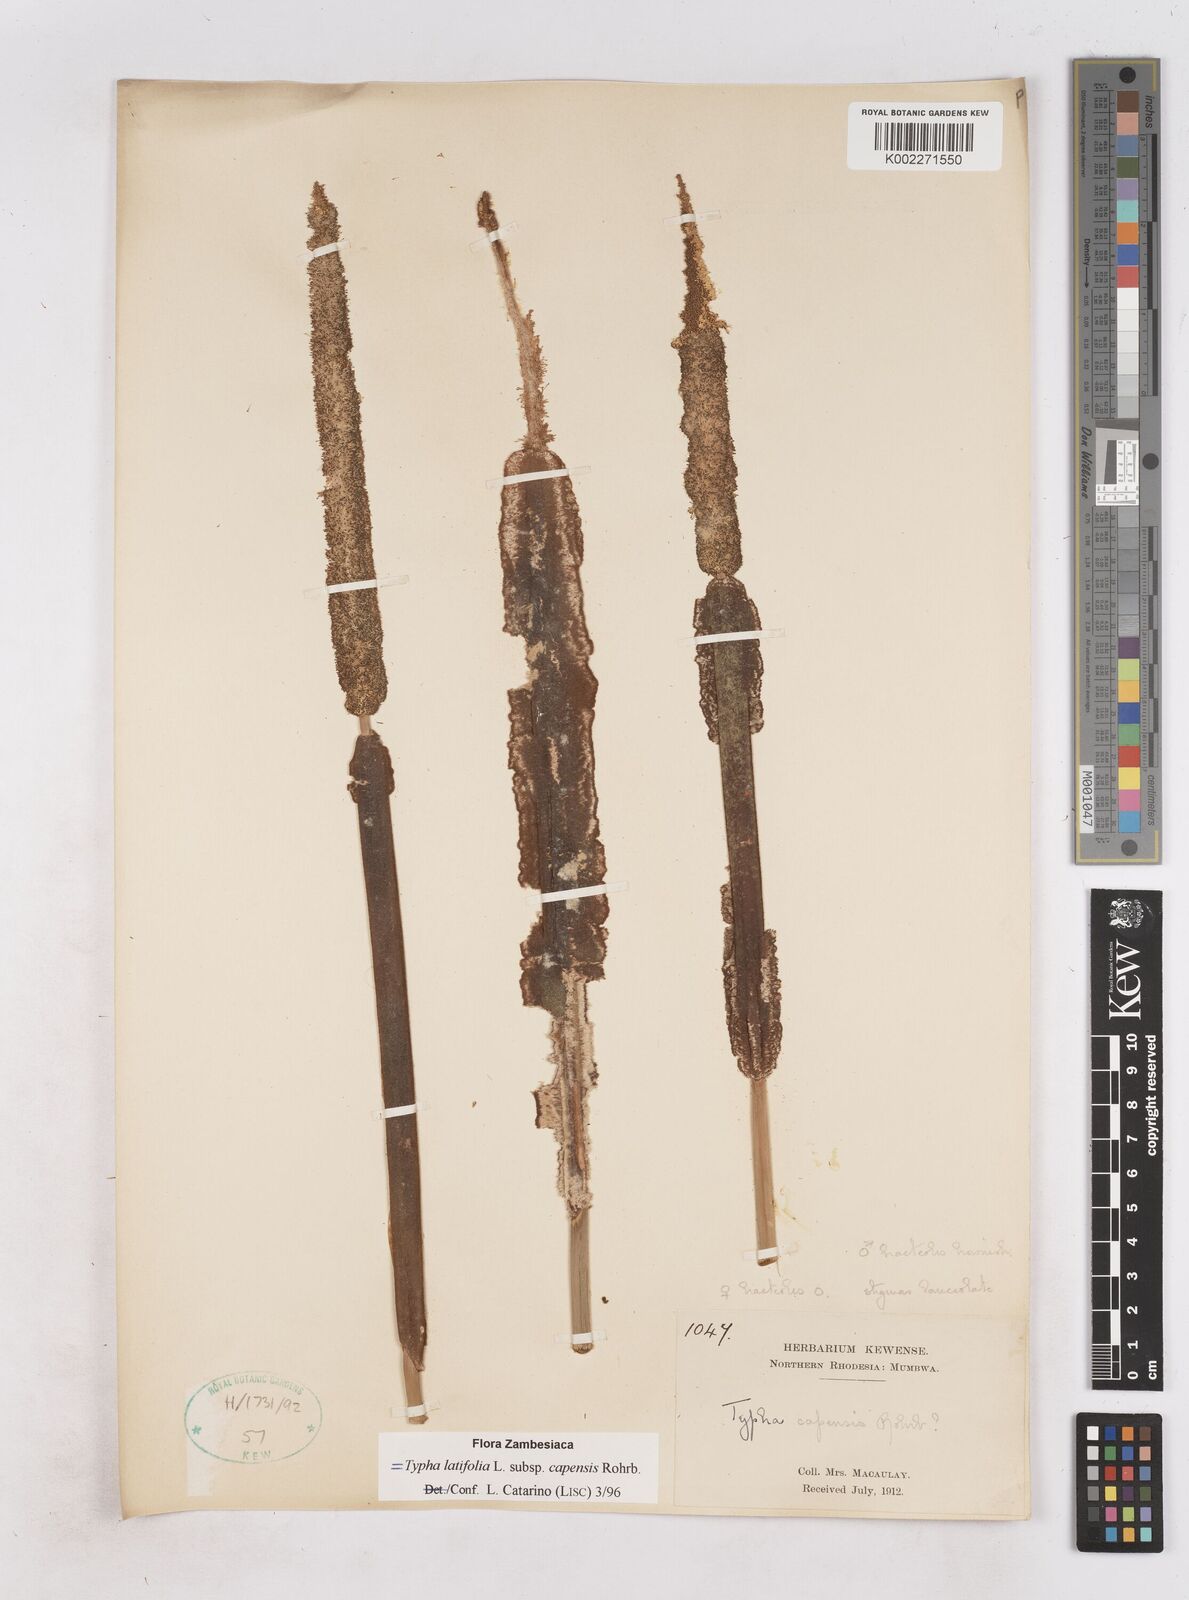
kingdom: Plantae
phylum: Tracheophyta
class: Liliopsida
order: Poales
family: Typhaceae
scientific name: Typhaceae
